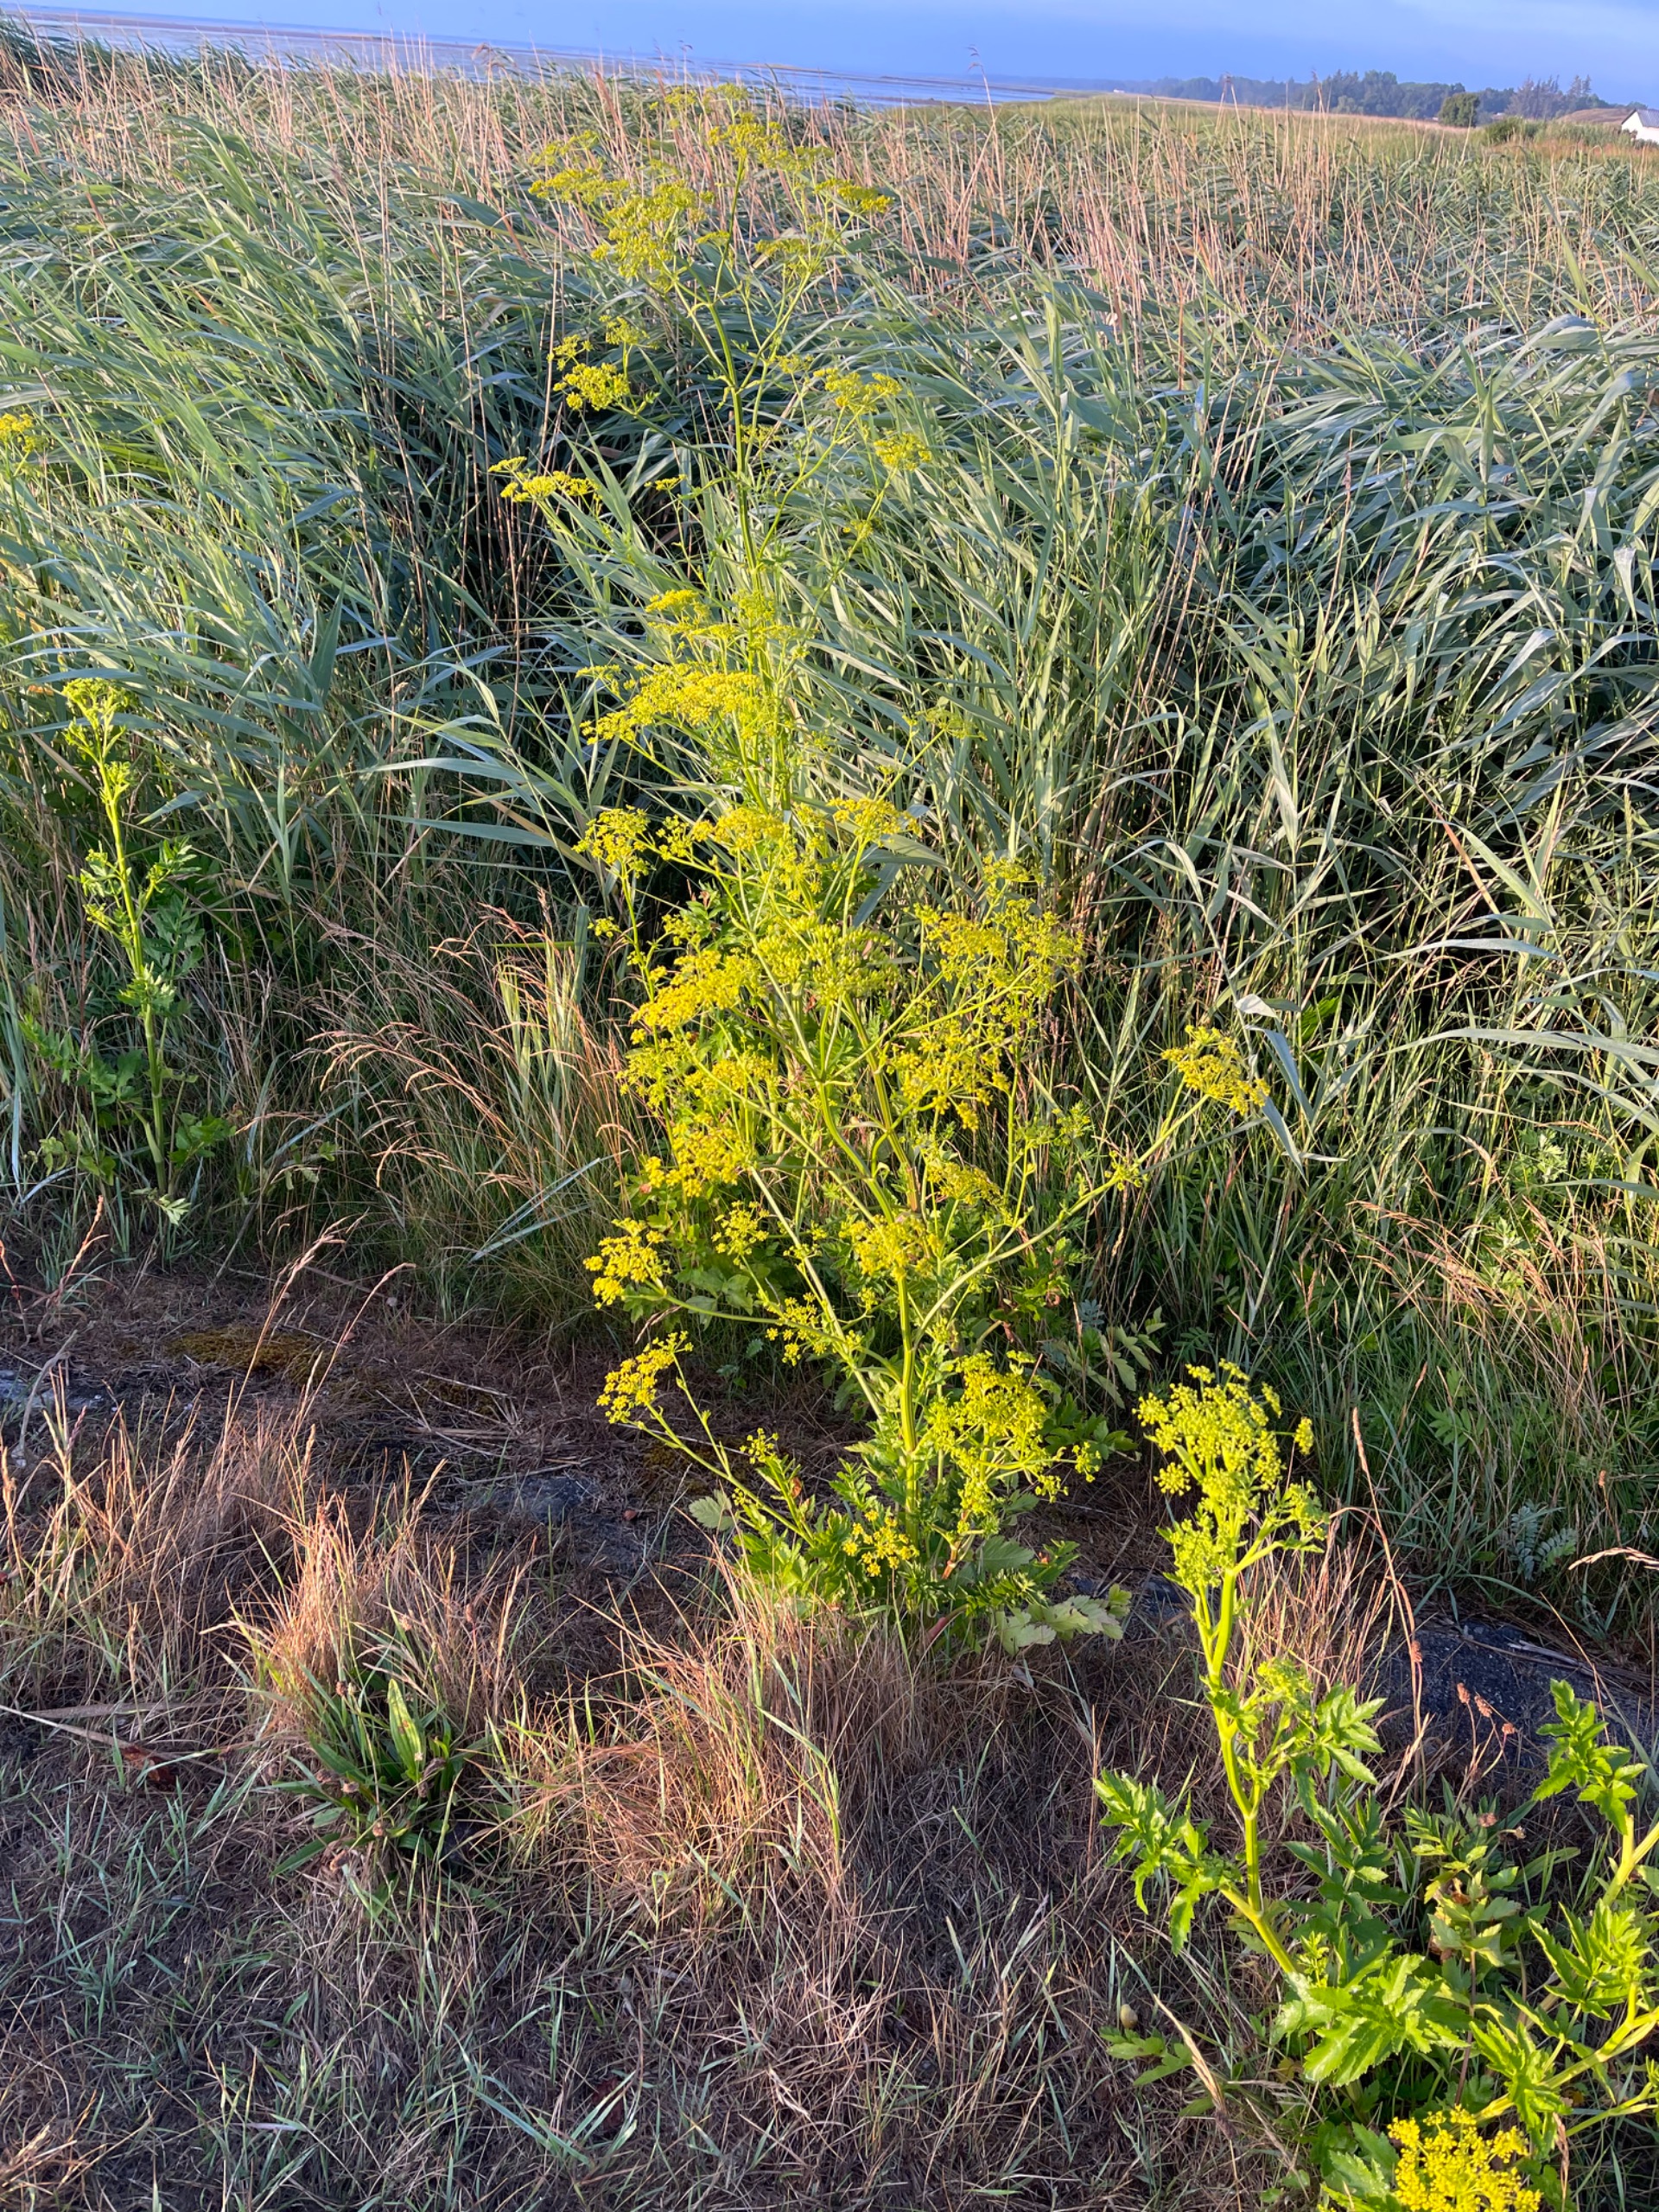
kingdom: Plantae
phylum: Tracheophyta
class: Magnoliopsida
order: Apiales
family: Apiaceae
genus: Pastinaca
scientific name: Pastinaca sativa
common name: Vild pastinak
